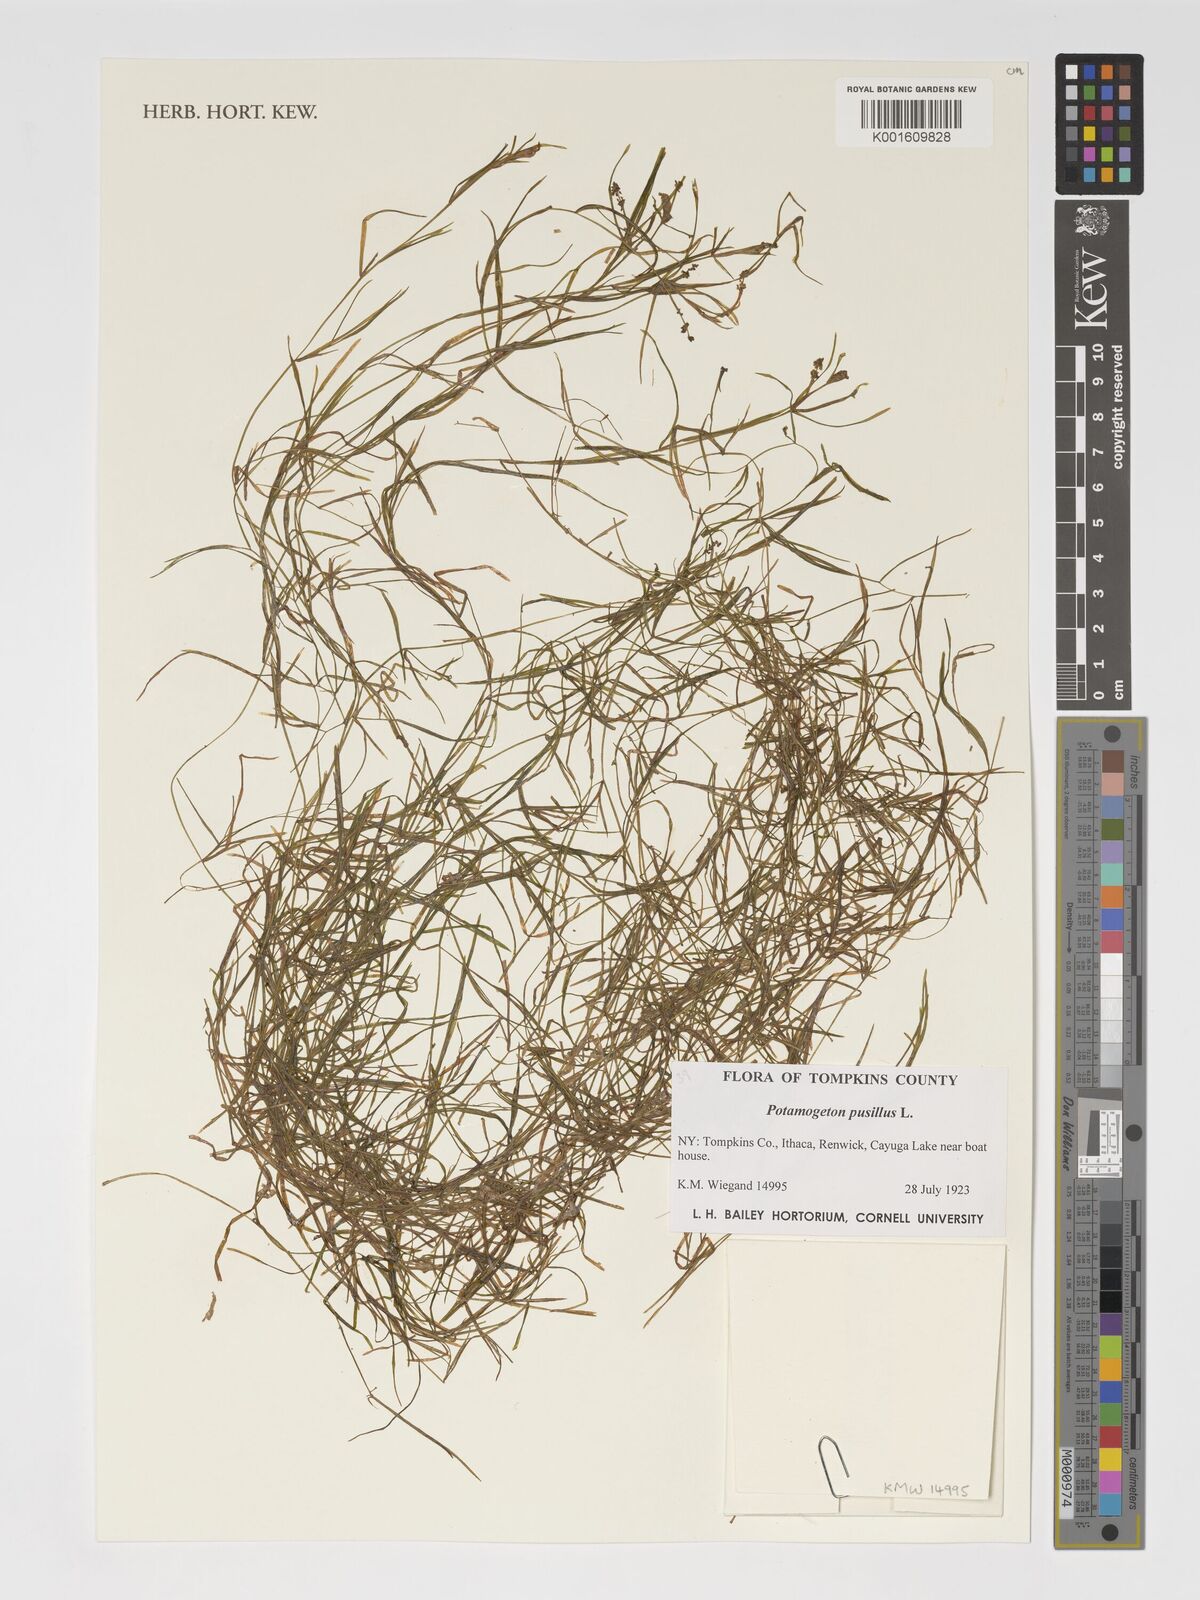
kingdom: Plantae
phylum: Tracheophyta
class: Liliopsida
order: Alismatales
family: Potamogetonaceae
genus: Potamogeton
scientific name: Potamogeton pusillus
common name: Lesser pondweed
